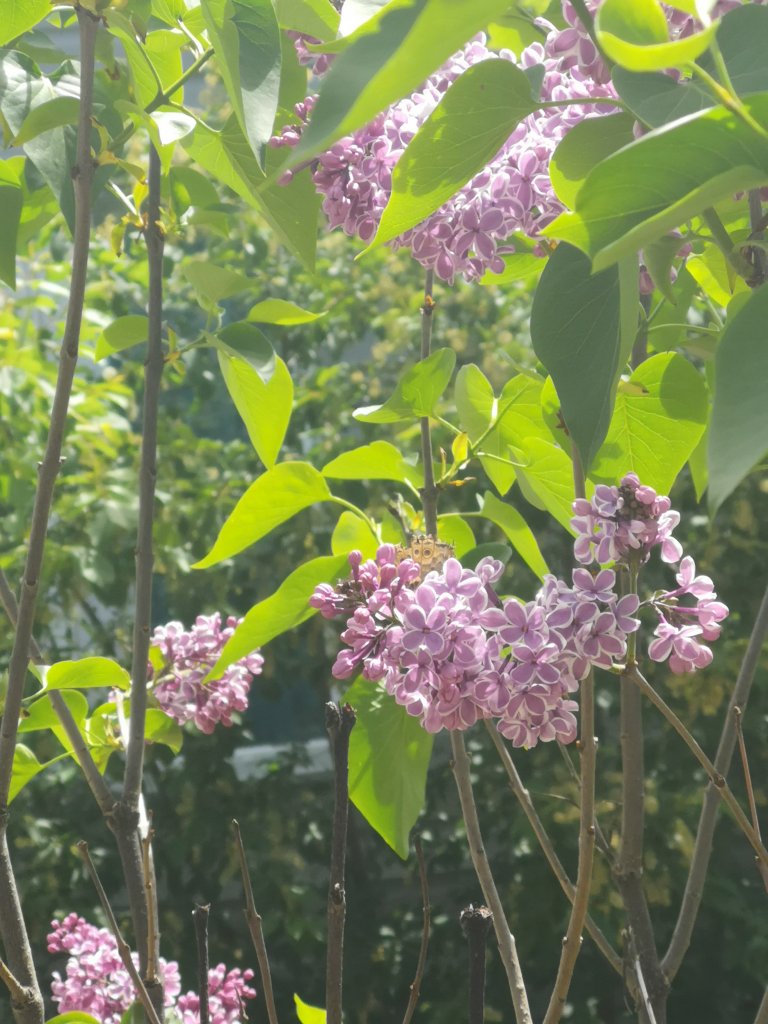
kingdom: Animalia
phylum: Arthropoda
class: Insecta
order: Lepidoptera
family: Nymphalidae
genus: Vanessa
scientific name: Vanessa cardui
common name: Painted Lady
